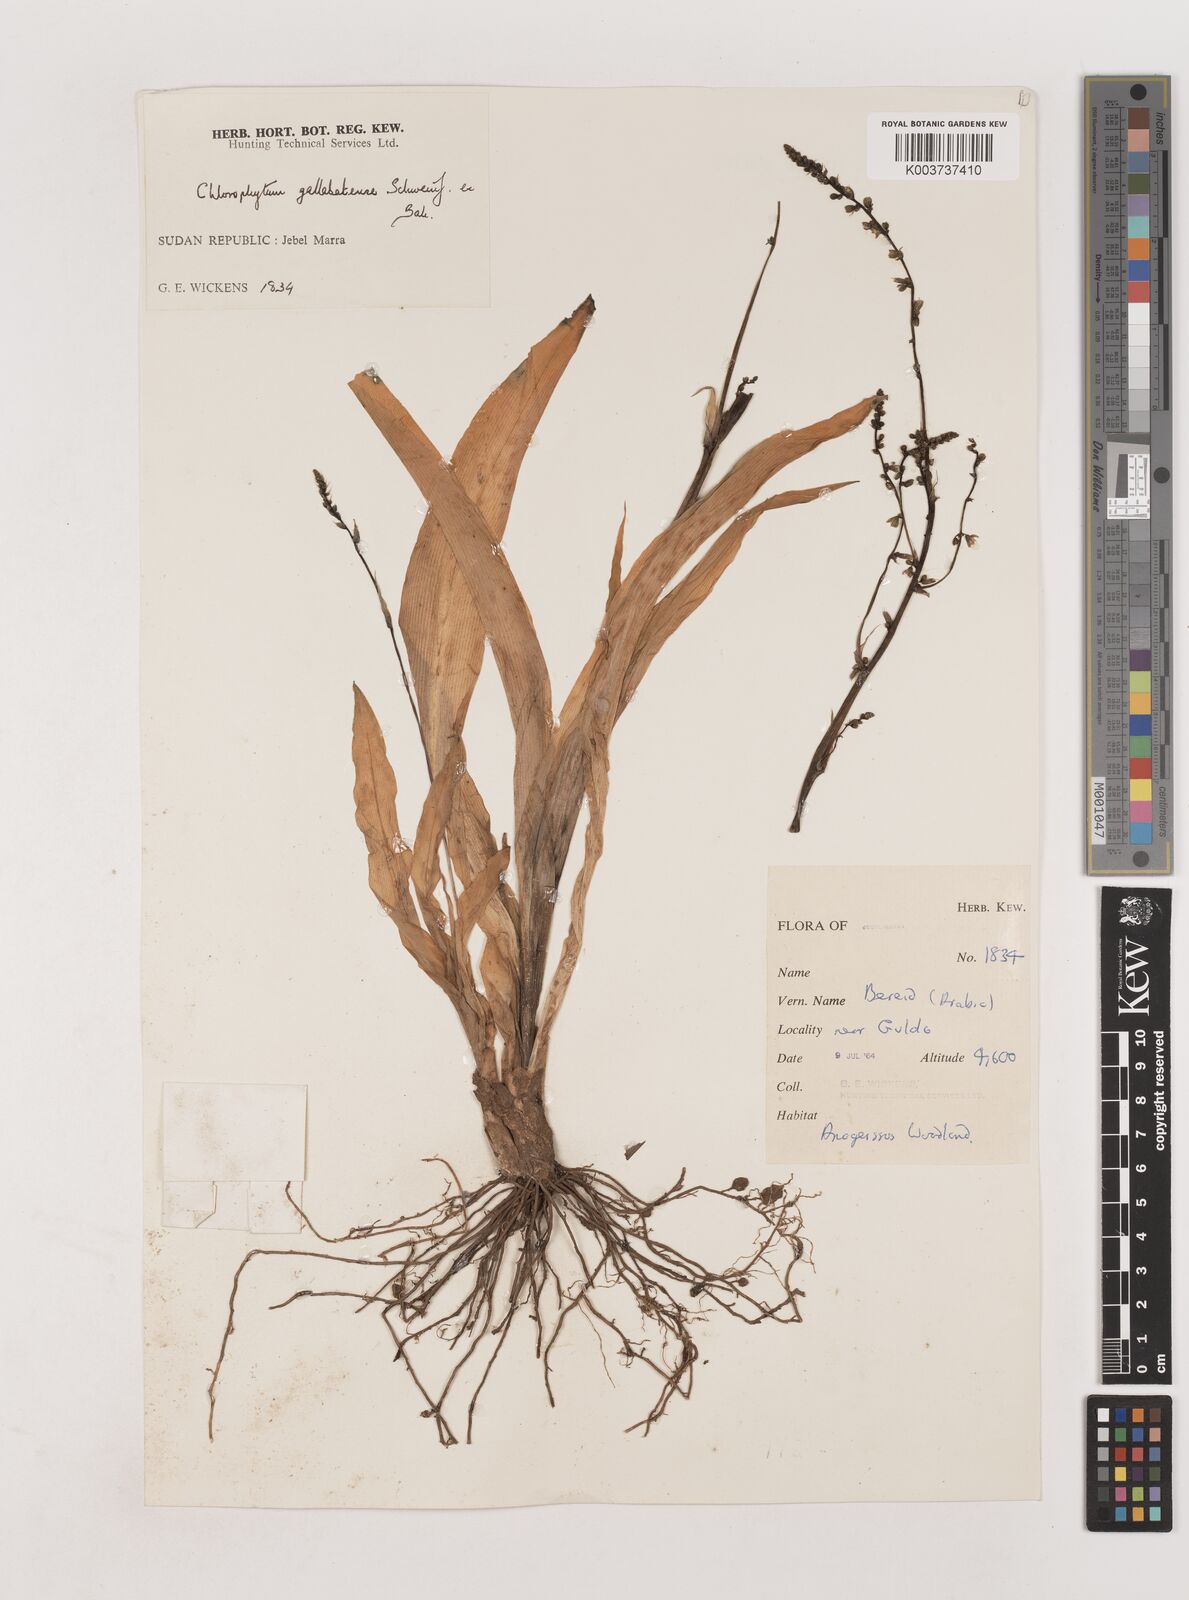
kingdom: Plantae
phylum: Tracheophyta
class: Liliopsida
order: Asparagales
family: Asparagaceae
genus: Chlorophytum
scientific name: Chlorophytum gallabatense
